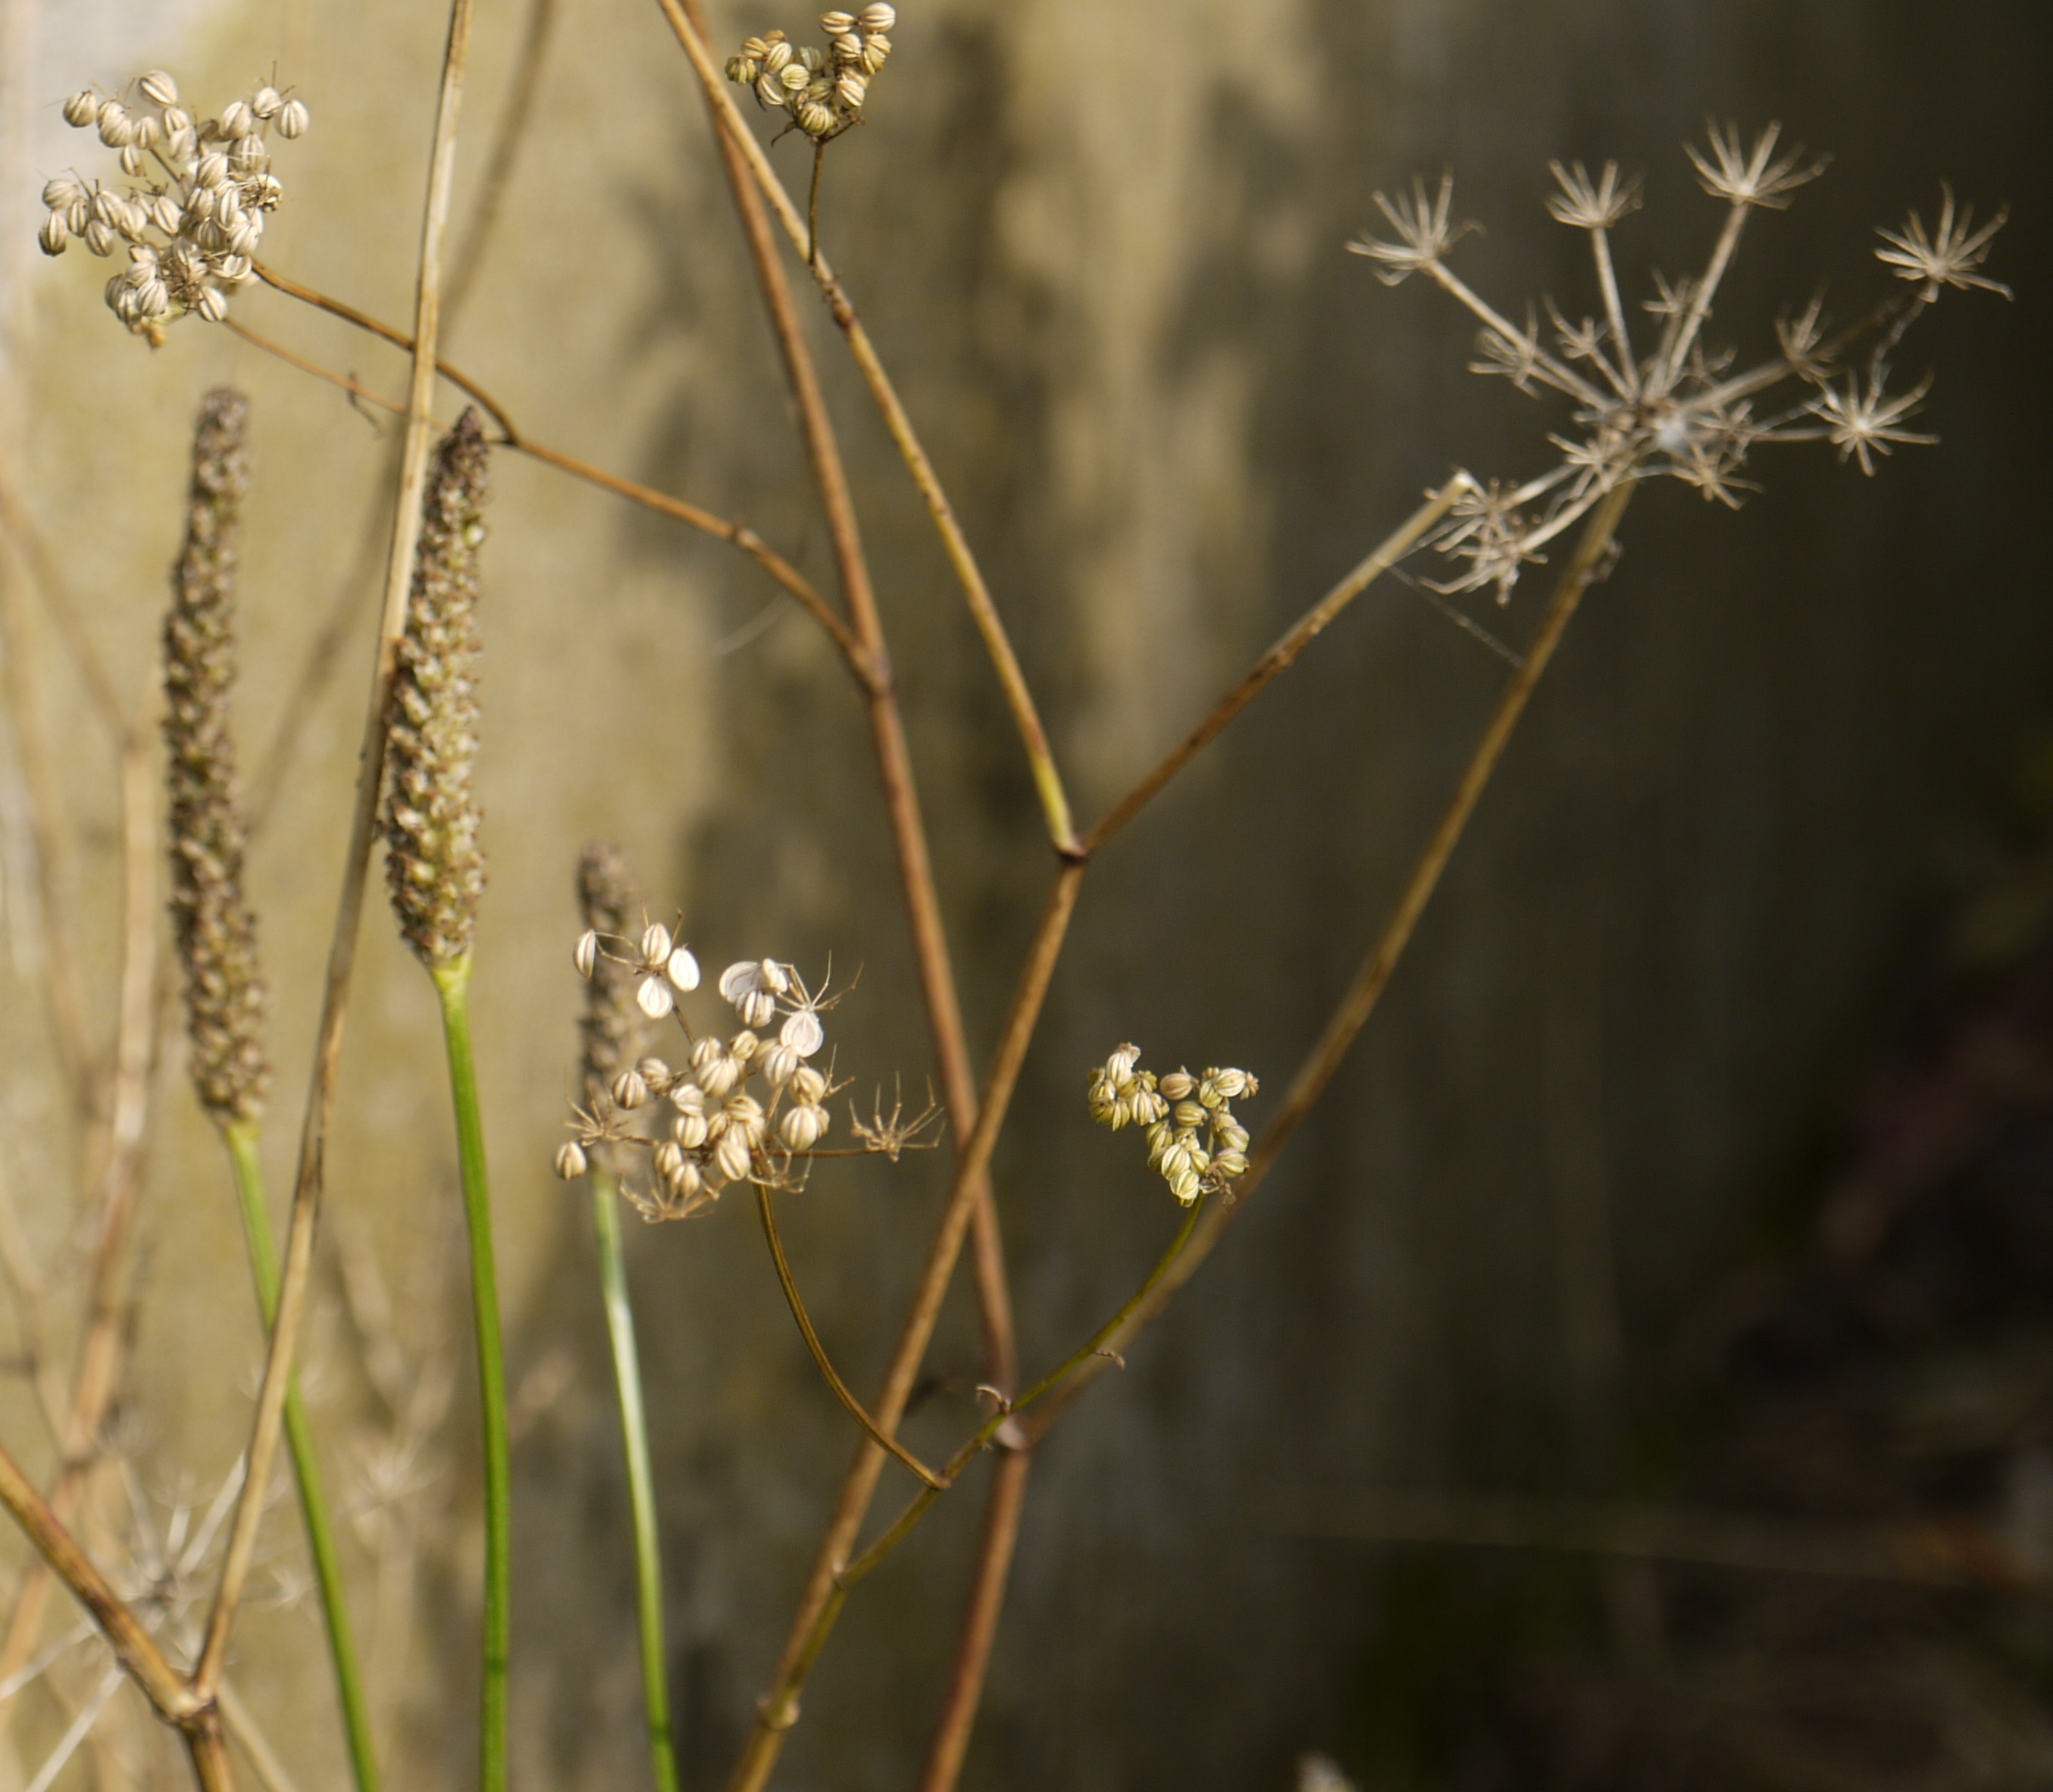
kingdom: Plantae
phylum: Tracheophyta
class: Magnoliopsida
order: Apiales
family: Apiaceae
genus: Aethusa
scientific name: Aethusa cynapium
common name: Fool's parsley
